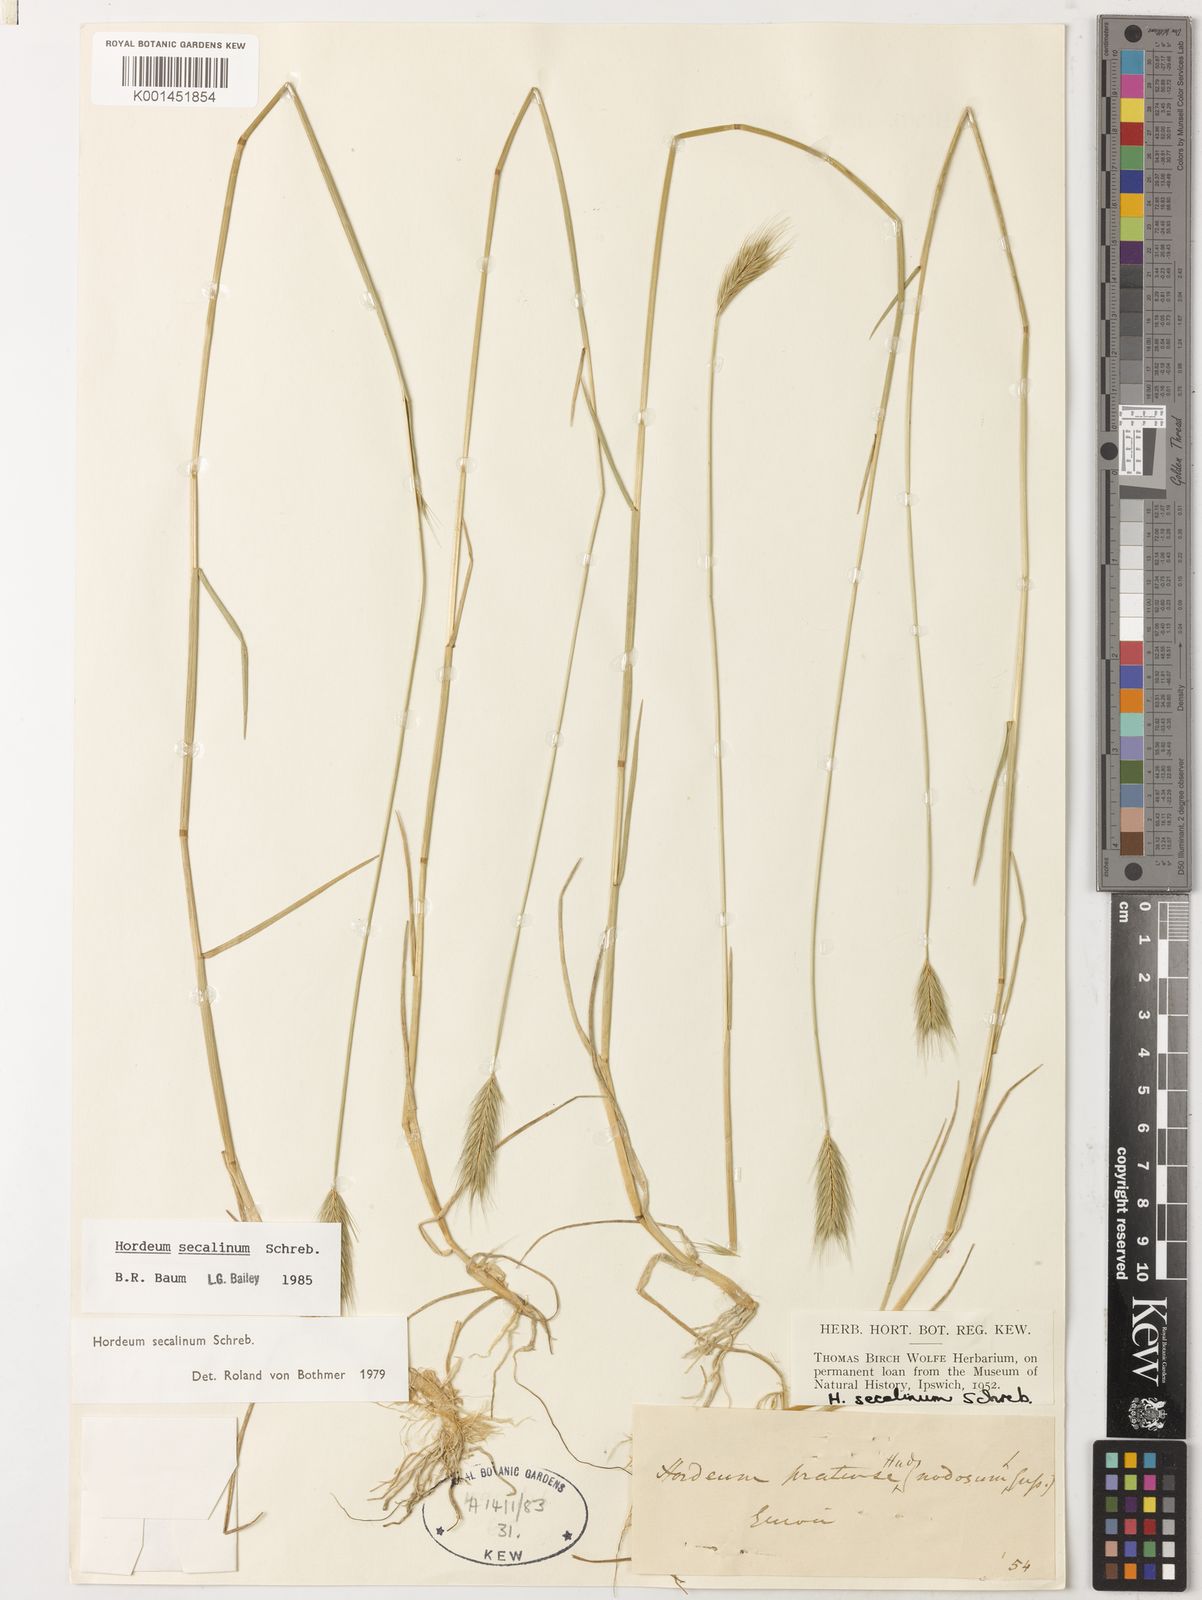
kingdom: Plantae
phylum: Tracheophyta
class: Liliopsida
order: Poales
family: Poaceae
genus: Hordeum
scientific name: Hordeum secalinum
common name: Meadow barley
